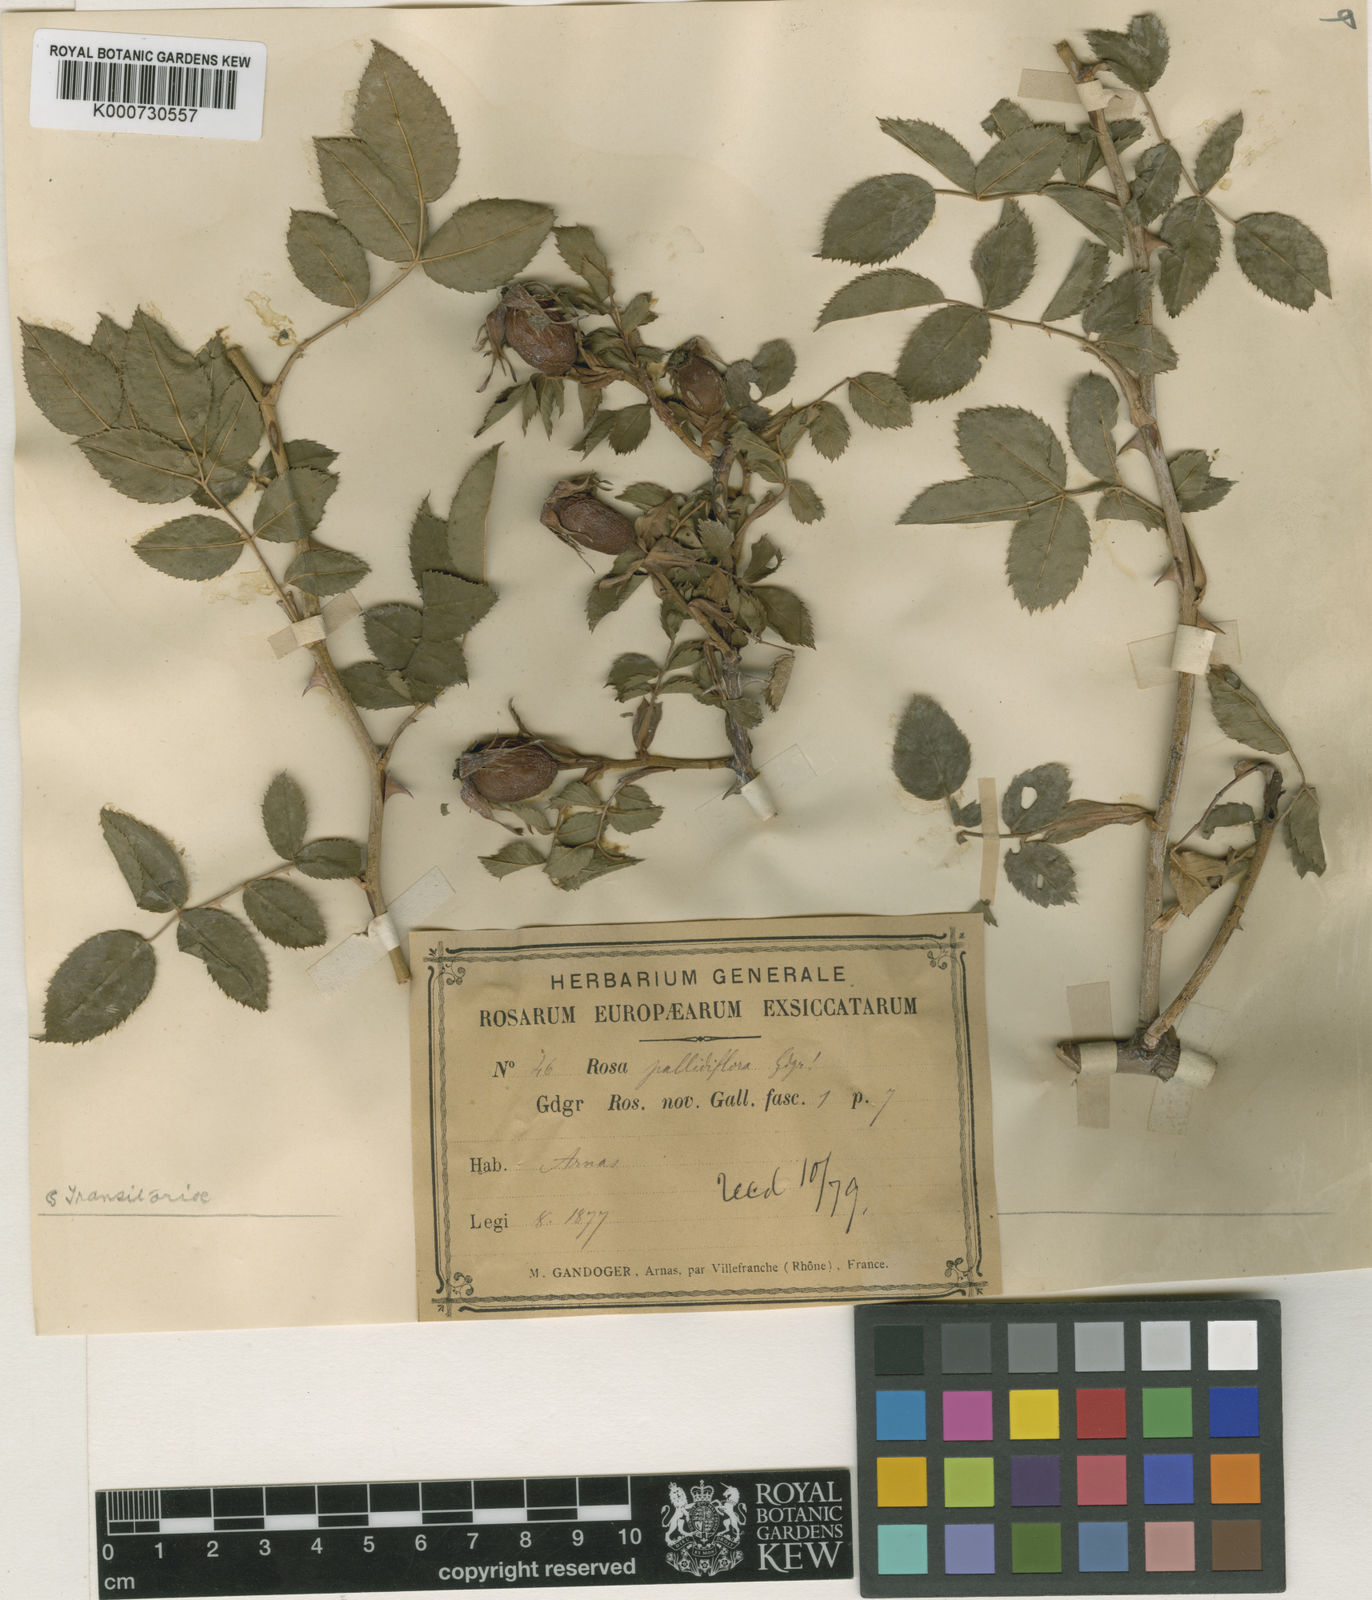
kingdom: Plantae
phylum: Tracheophyta
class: Magnoliopsida
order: Rosales
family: Rosaceae
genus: Rosa
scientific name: Rosa
